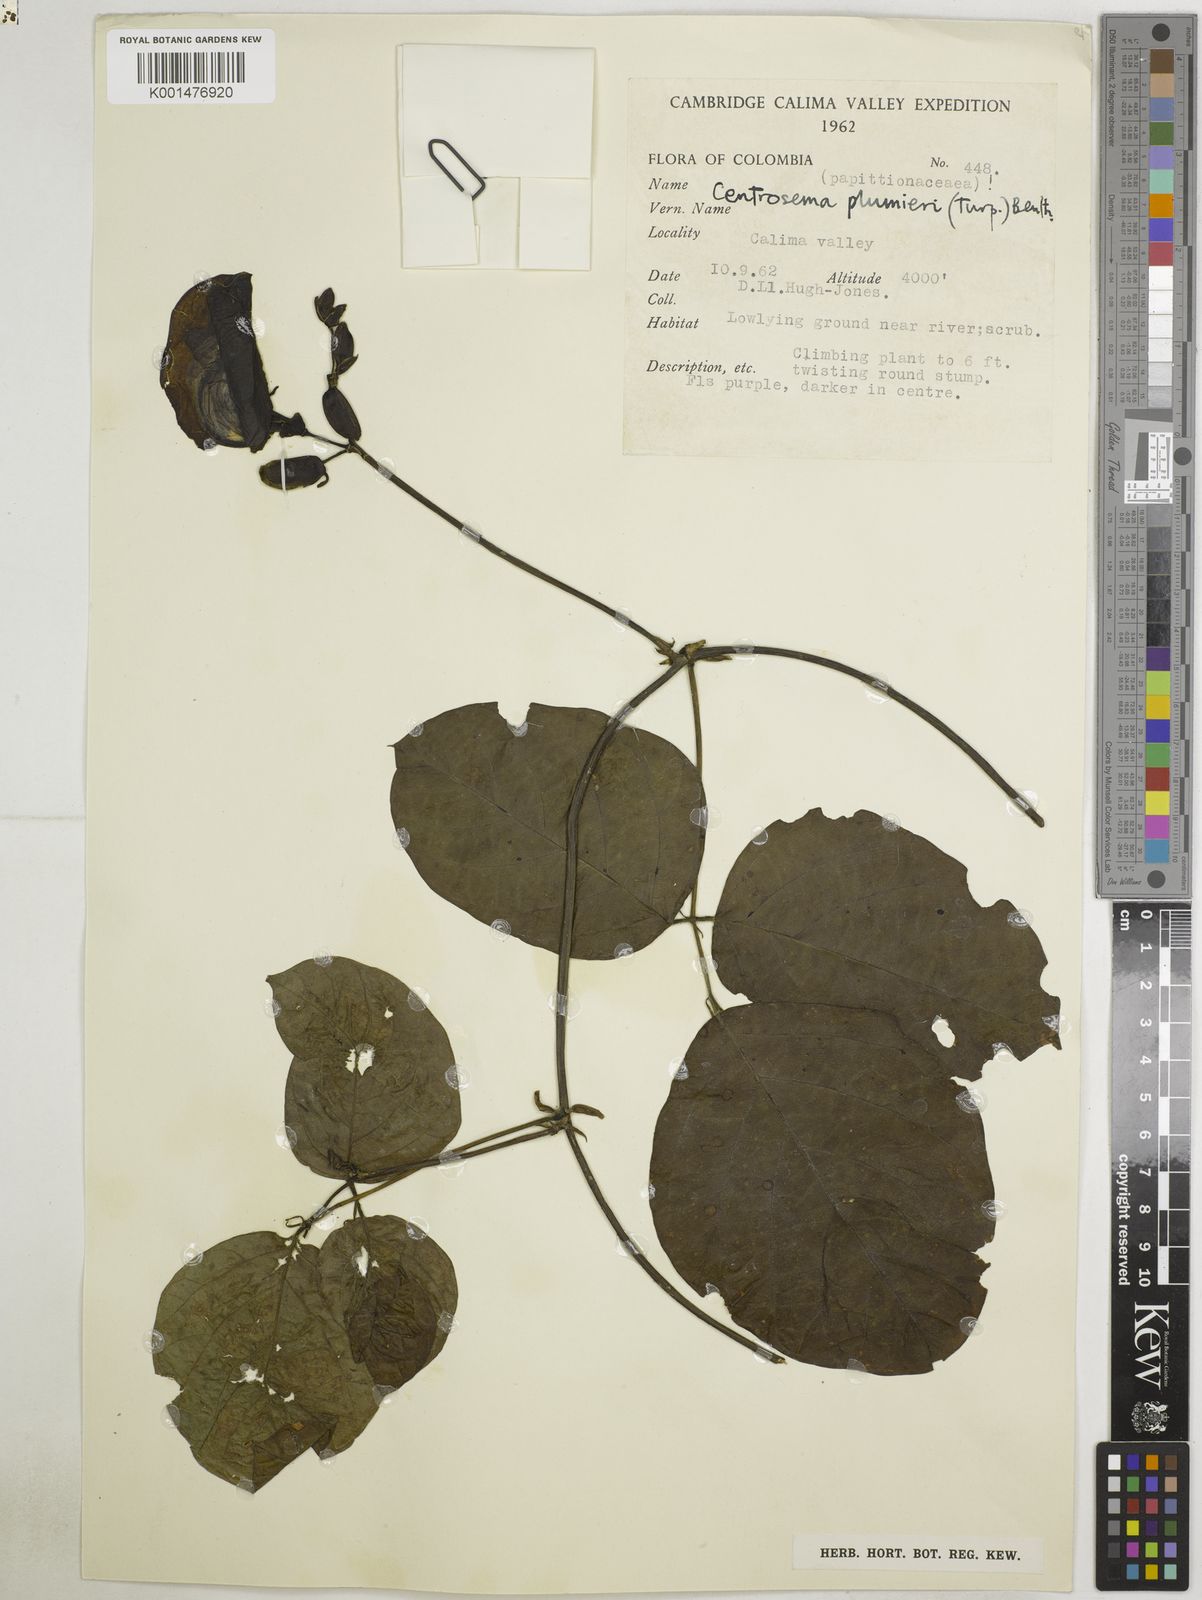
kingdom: Plantae
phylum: Tracheophyta
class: Magnoliopsida
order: Fabales
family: Fabaceae
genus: Centrosema
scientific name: Centrosema plumieri
